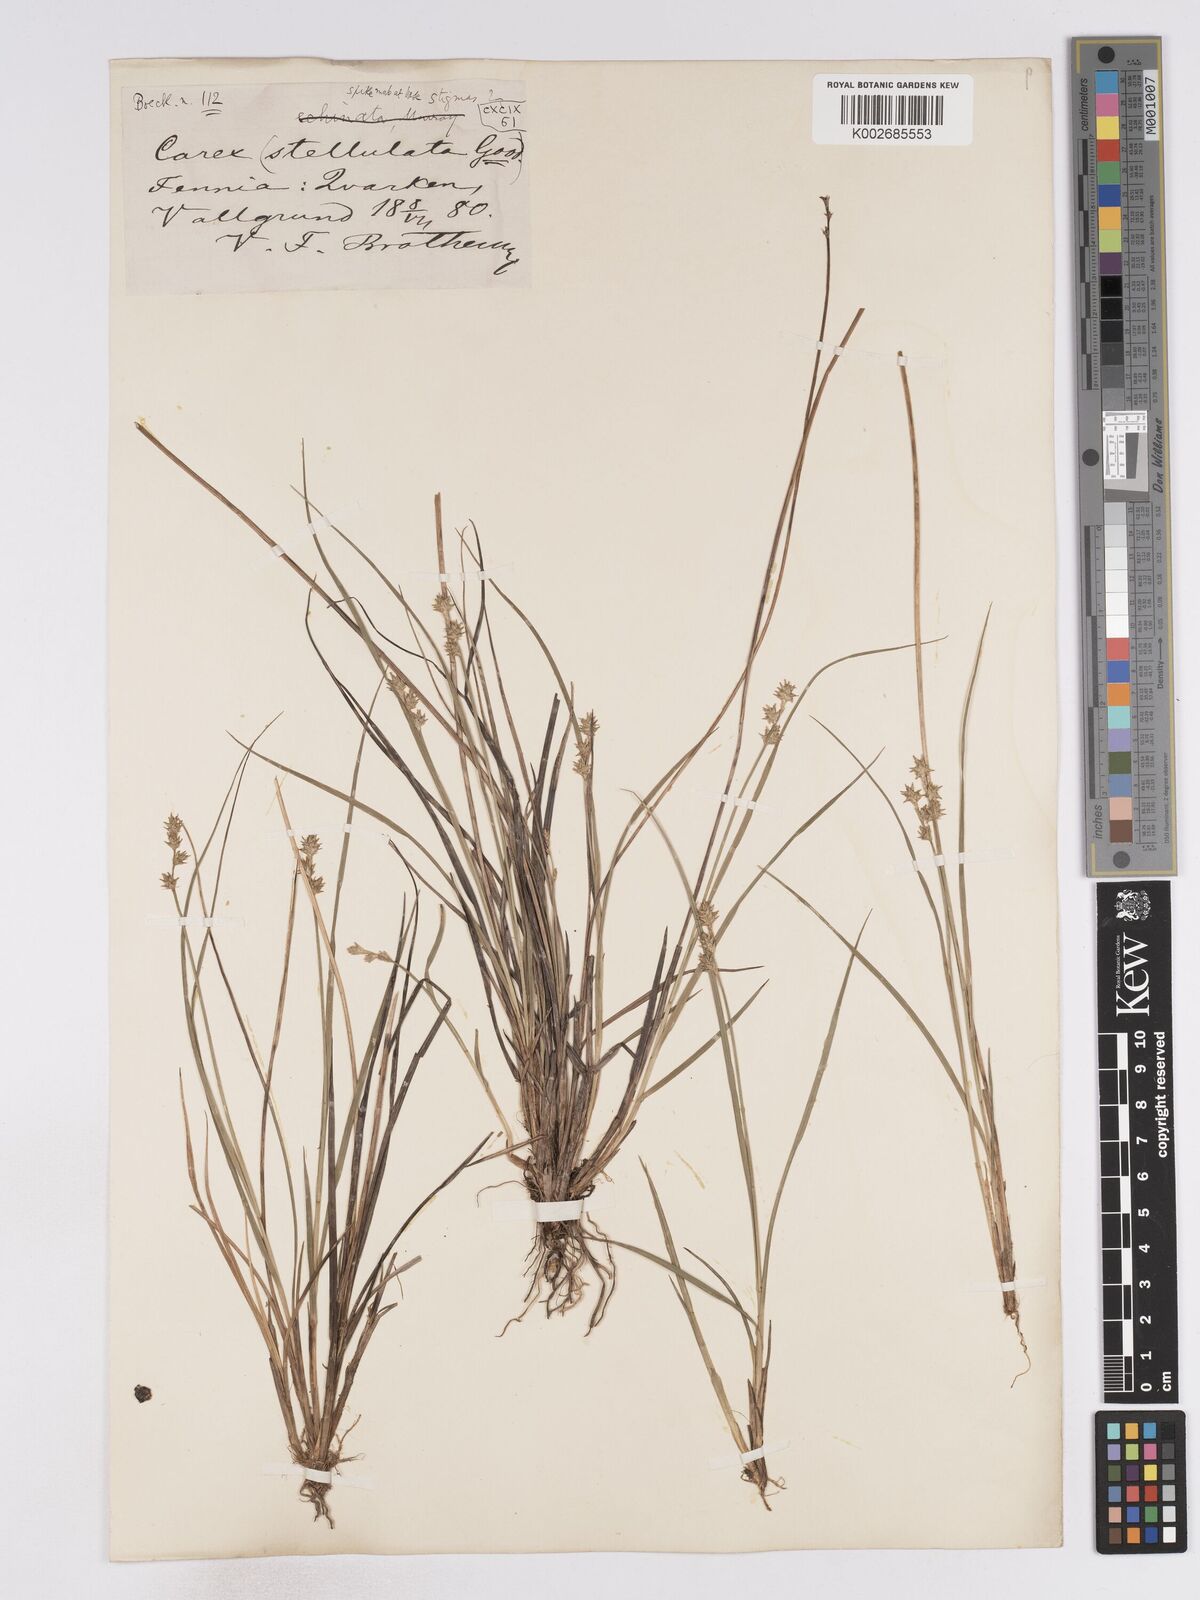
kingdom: Plantae
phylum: Tracheophyta
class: Liliopsida
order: Poales
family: Cyperaceae
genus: Carex
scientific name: Carex echinata
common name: Star sedge
